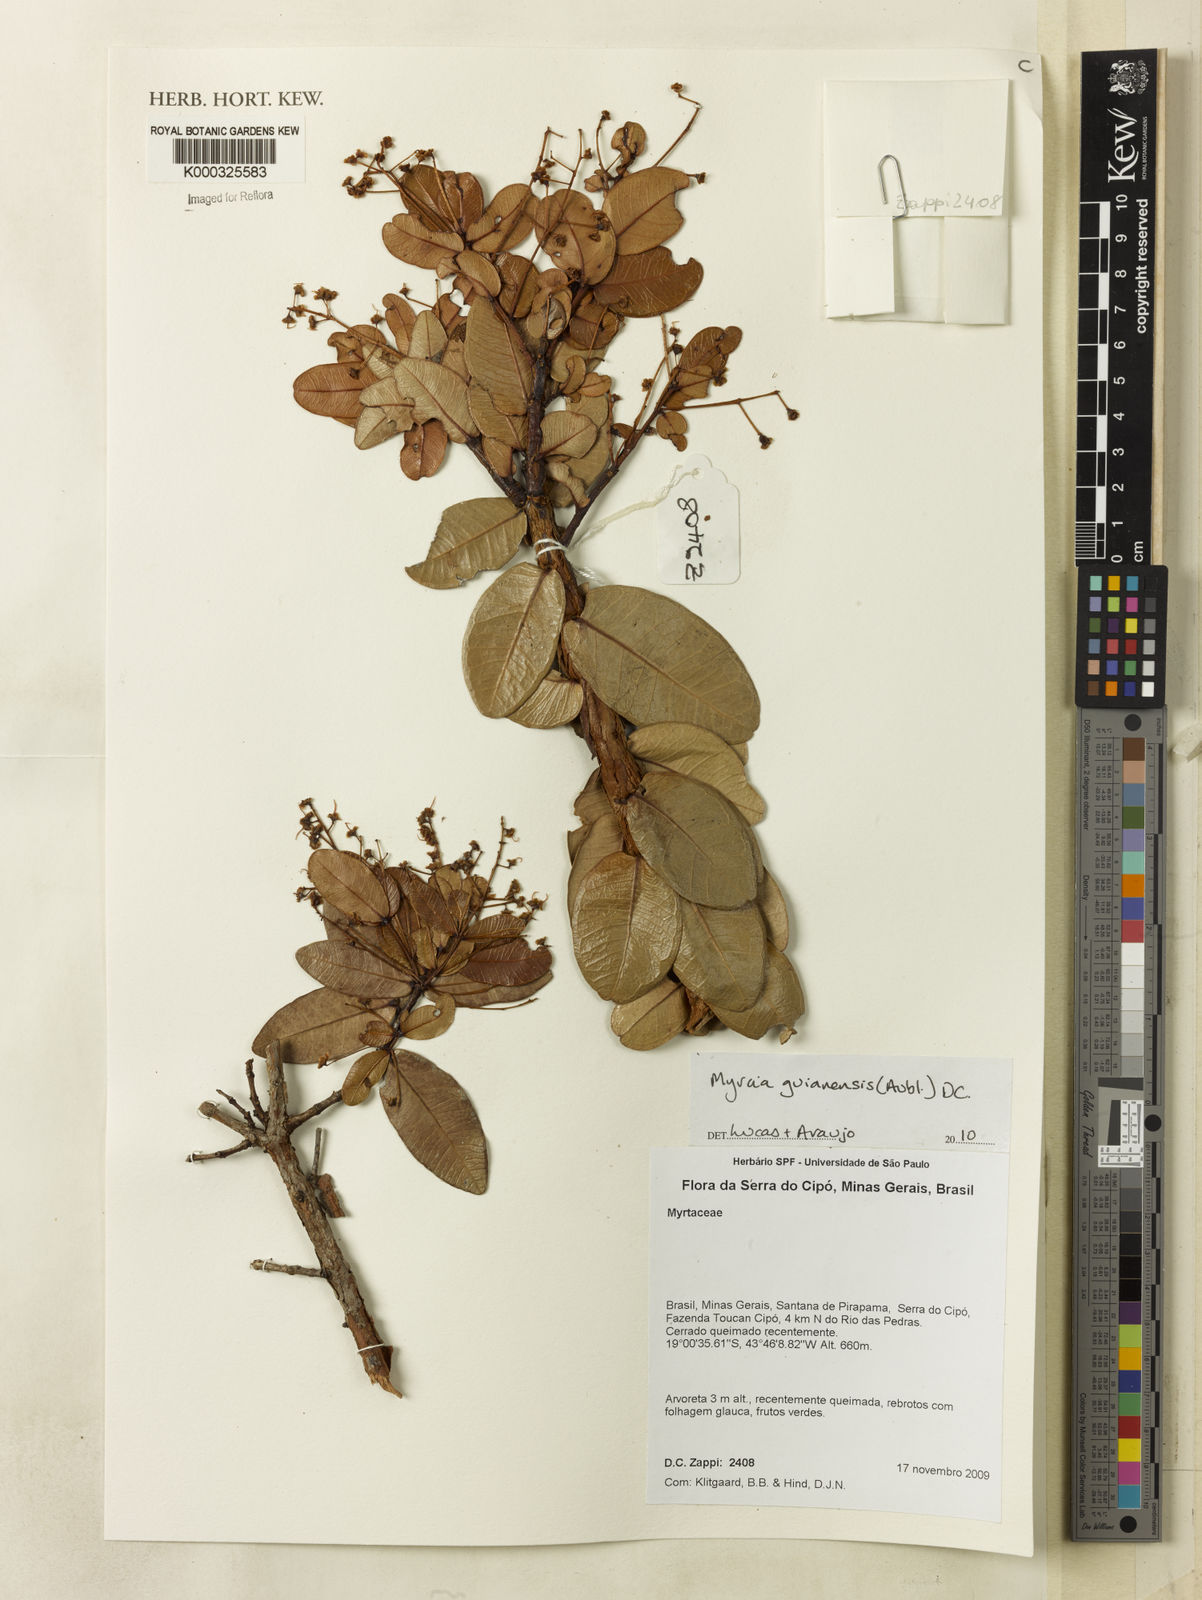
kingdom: Plantae
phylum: Tracheophyta
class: Magnoliopsida
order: Myrtales
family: Myrtaceae
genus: Myrcia
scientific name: Myrcia guianensis
